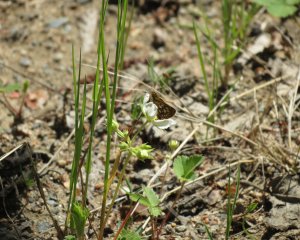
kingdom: Animalia
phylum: Arthropoda
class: Insecta
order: Lepidoptera
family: Hesperiidae
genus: Carterocephalus
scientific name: Carterocephalus palaemon
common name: Chequered Skipper
